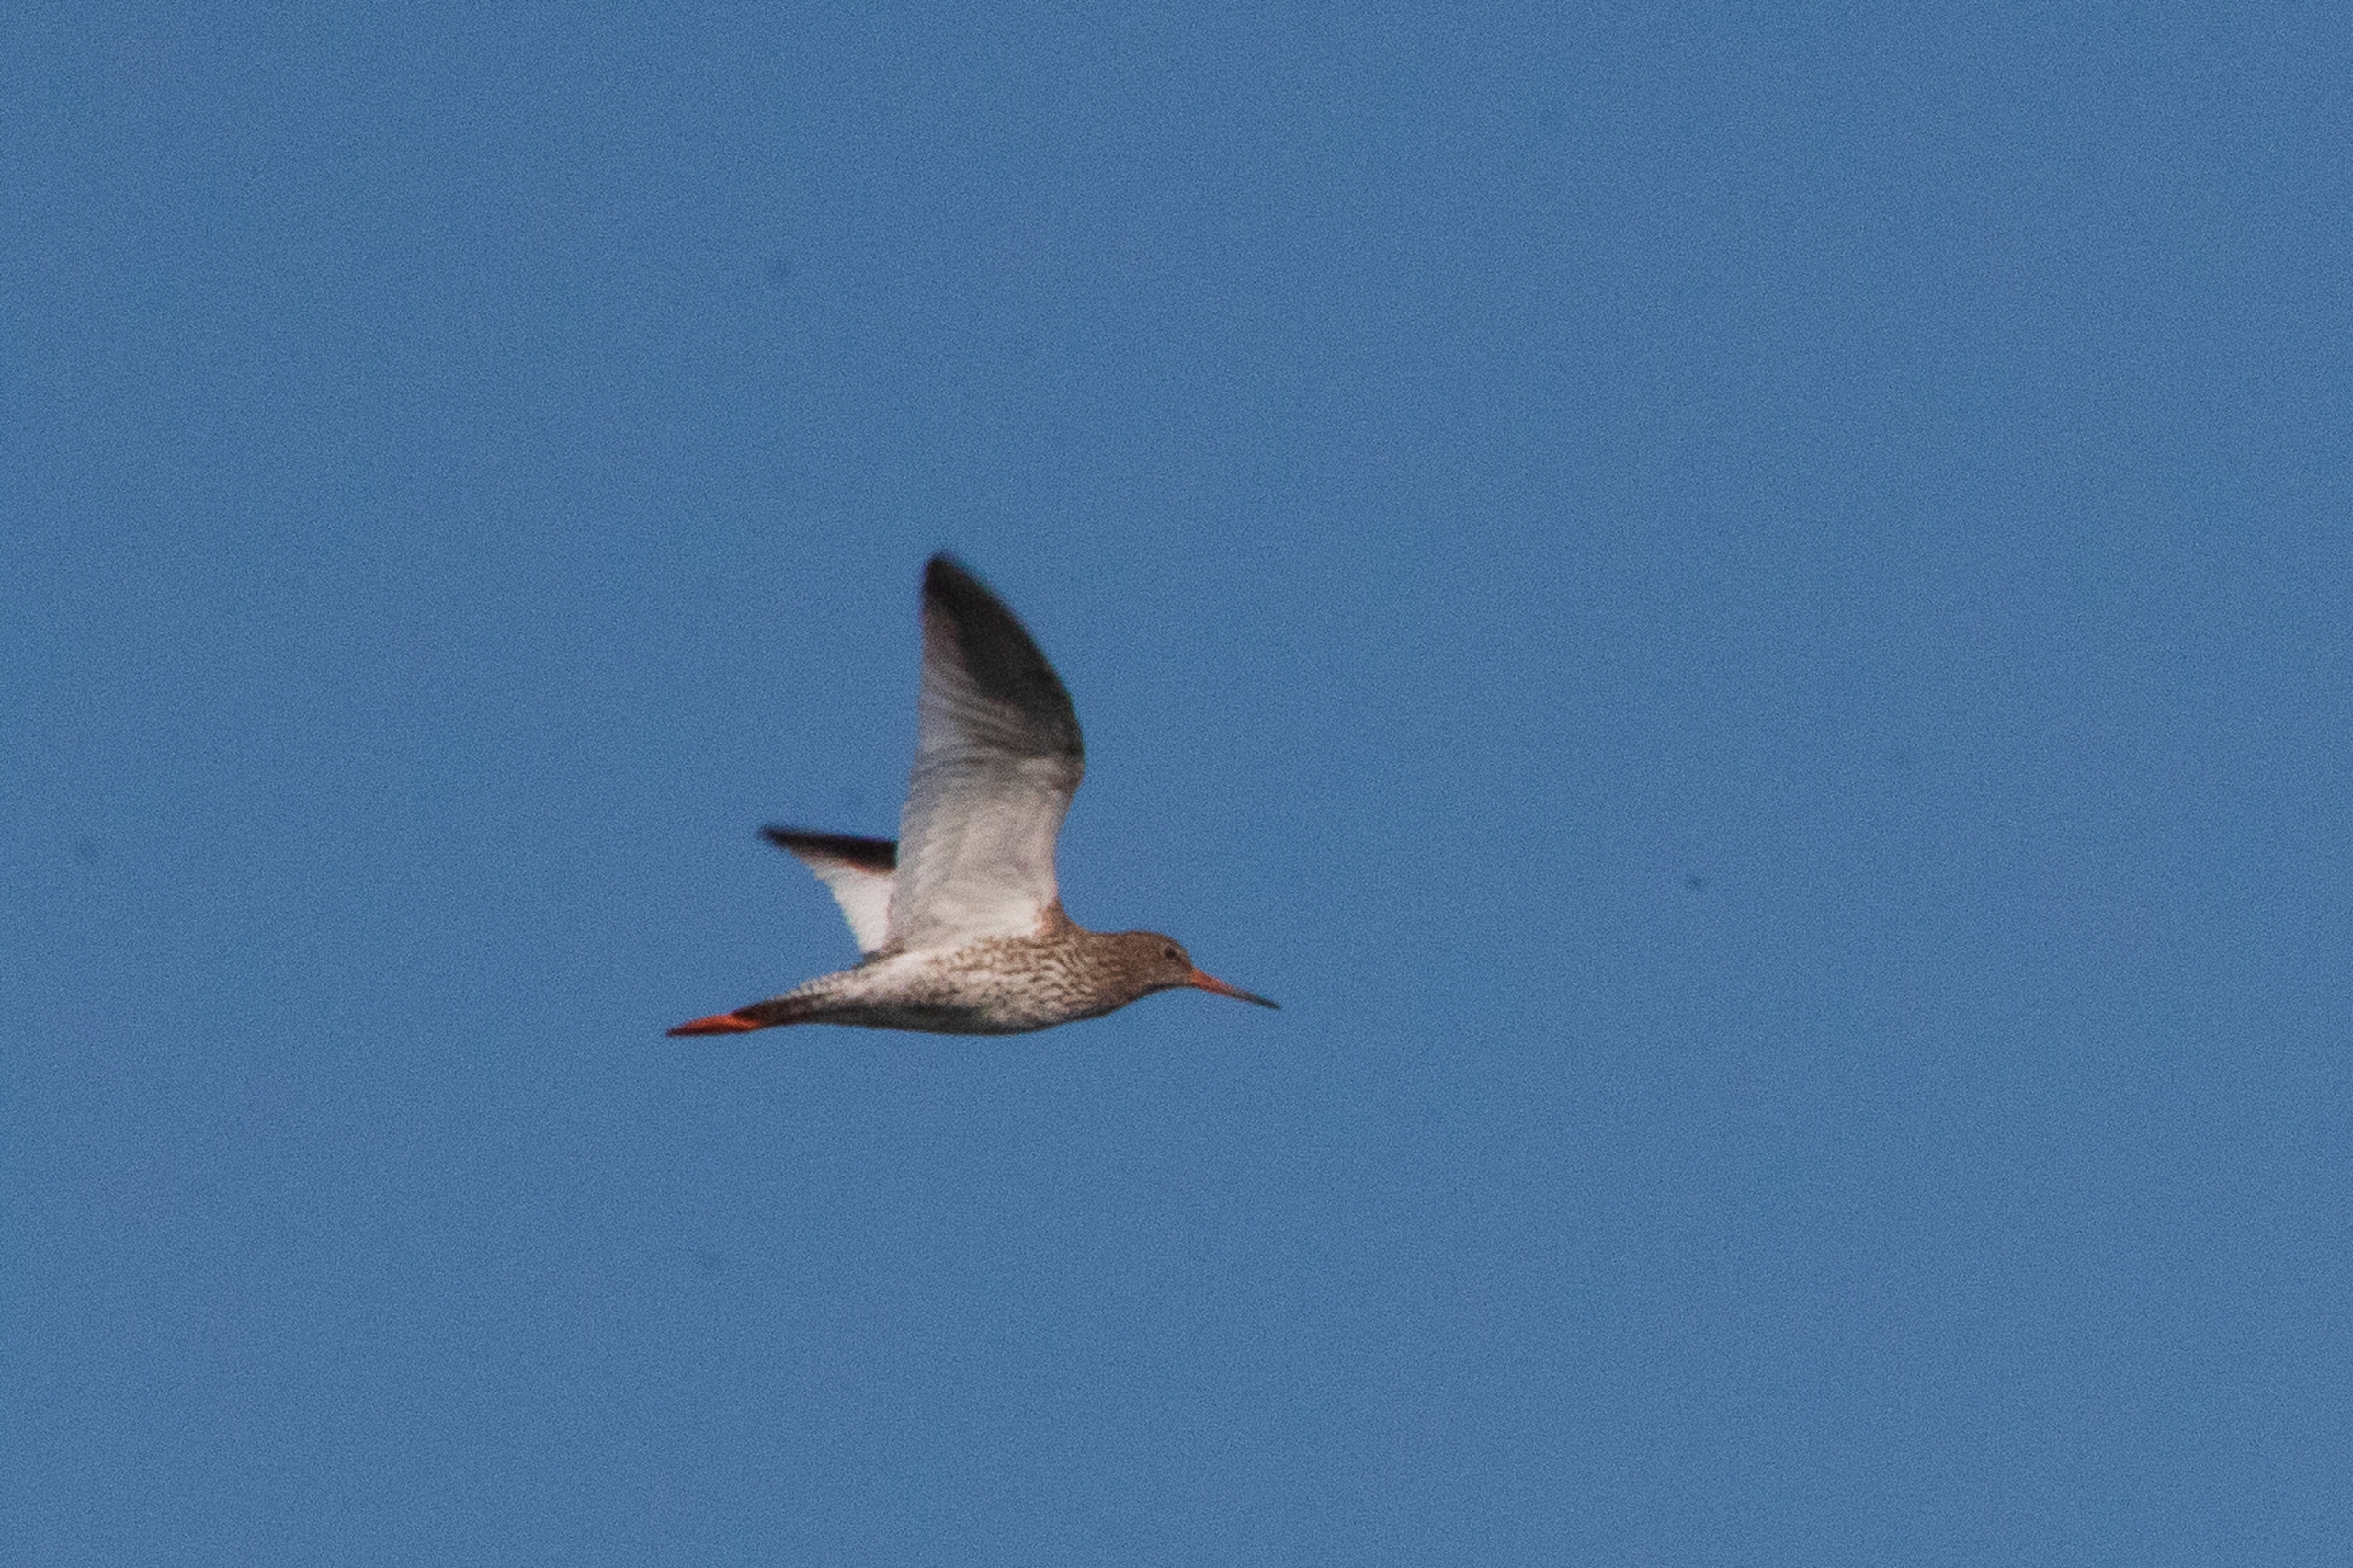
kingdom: Animalia
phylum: Chordata
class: Aves
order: Charadriiformes
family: Scolopacidae
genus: Tringa
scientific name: Tringa totanus
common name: Rødben
